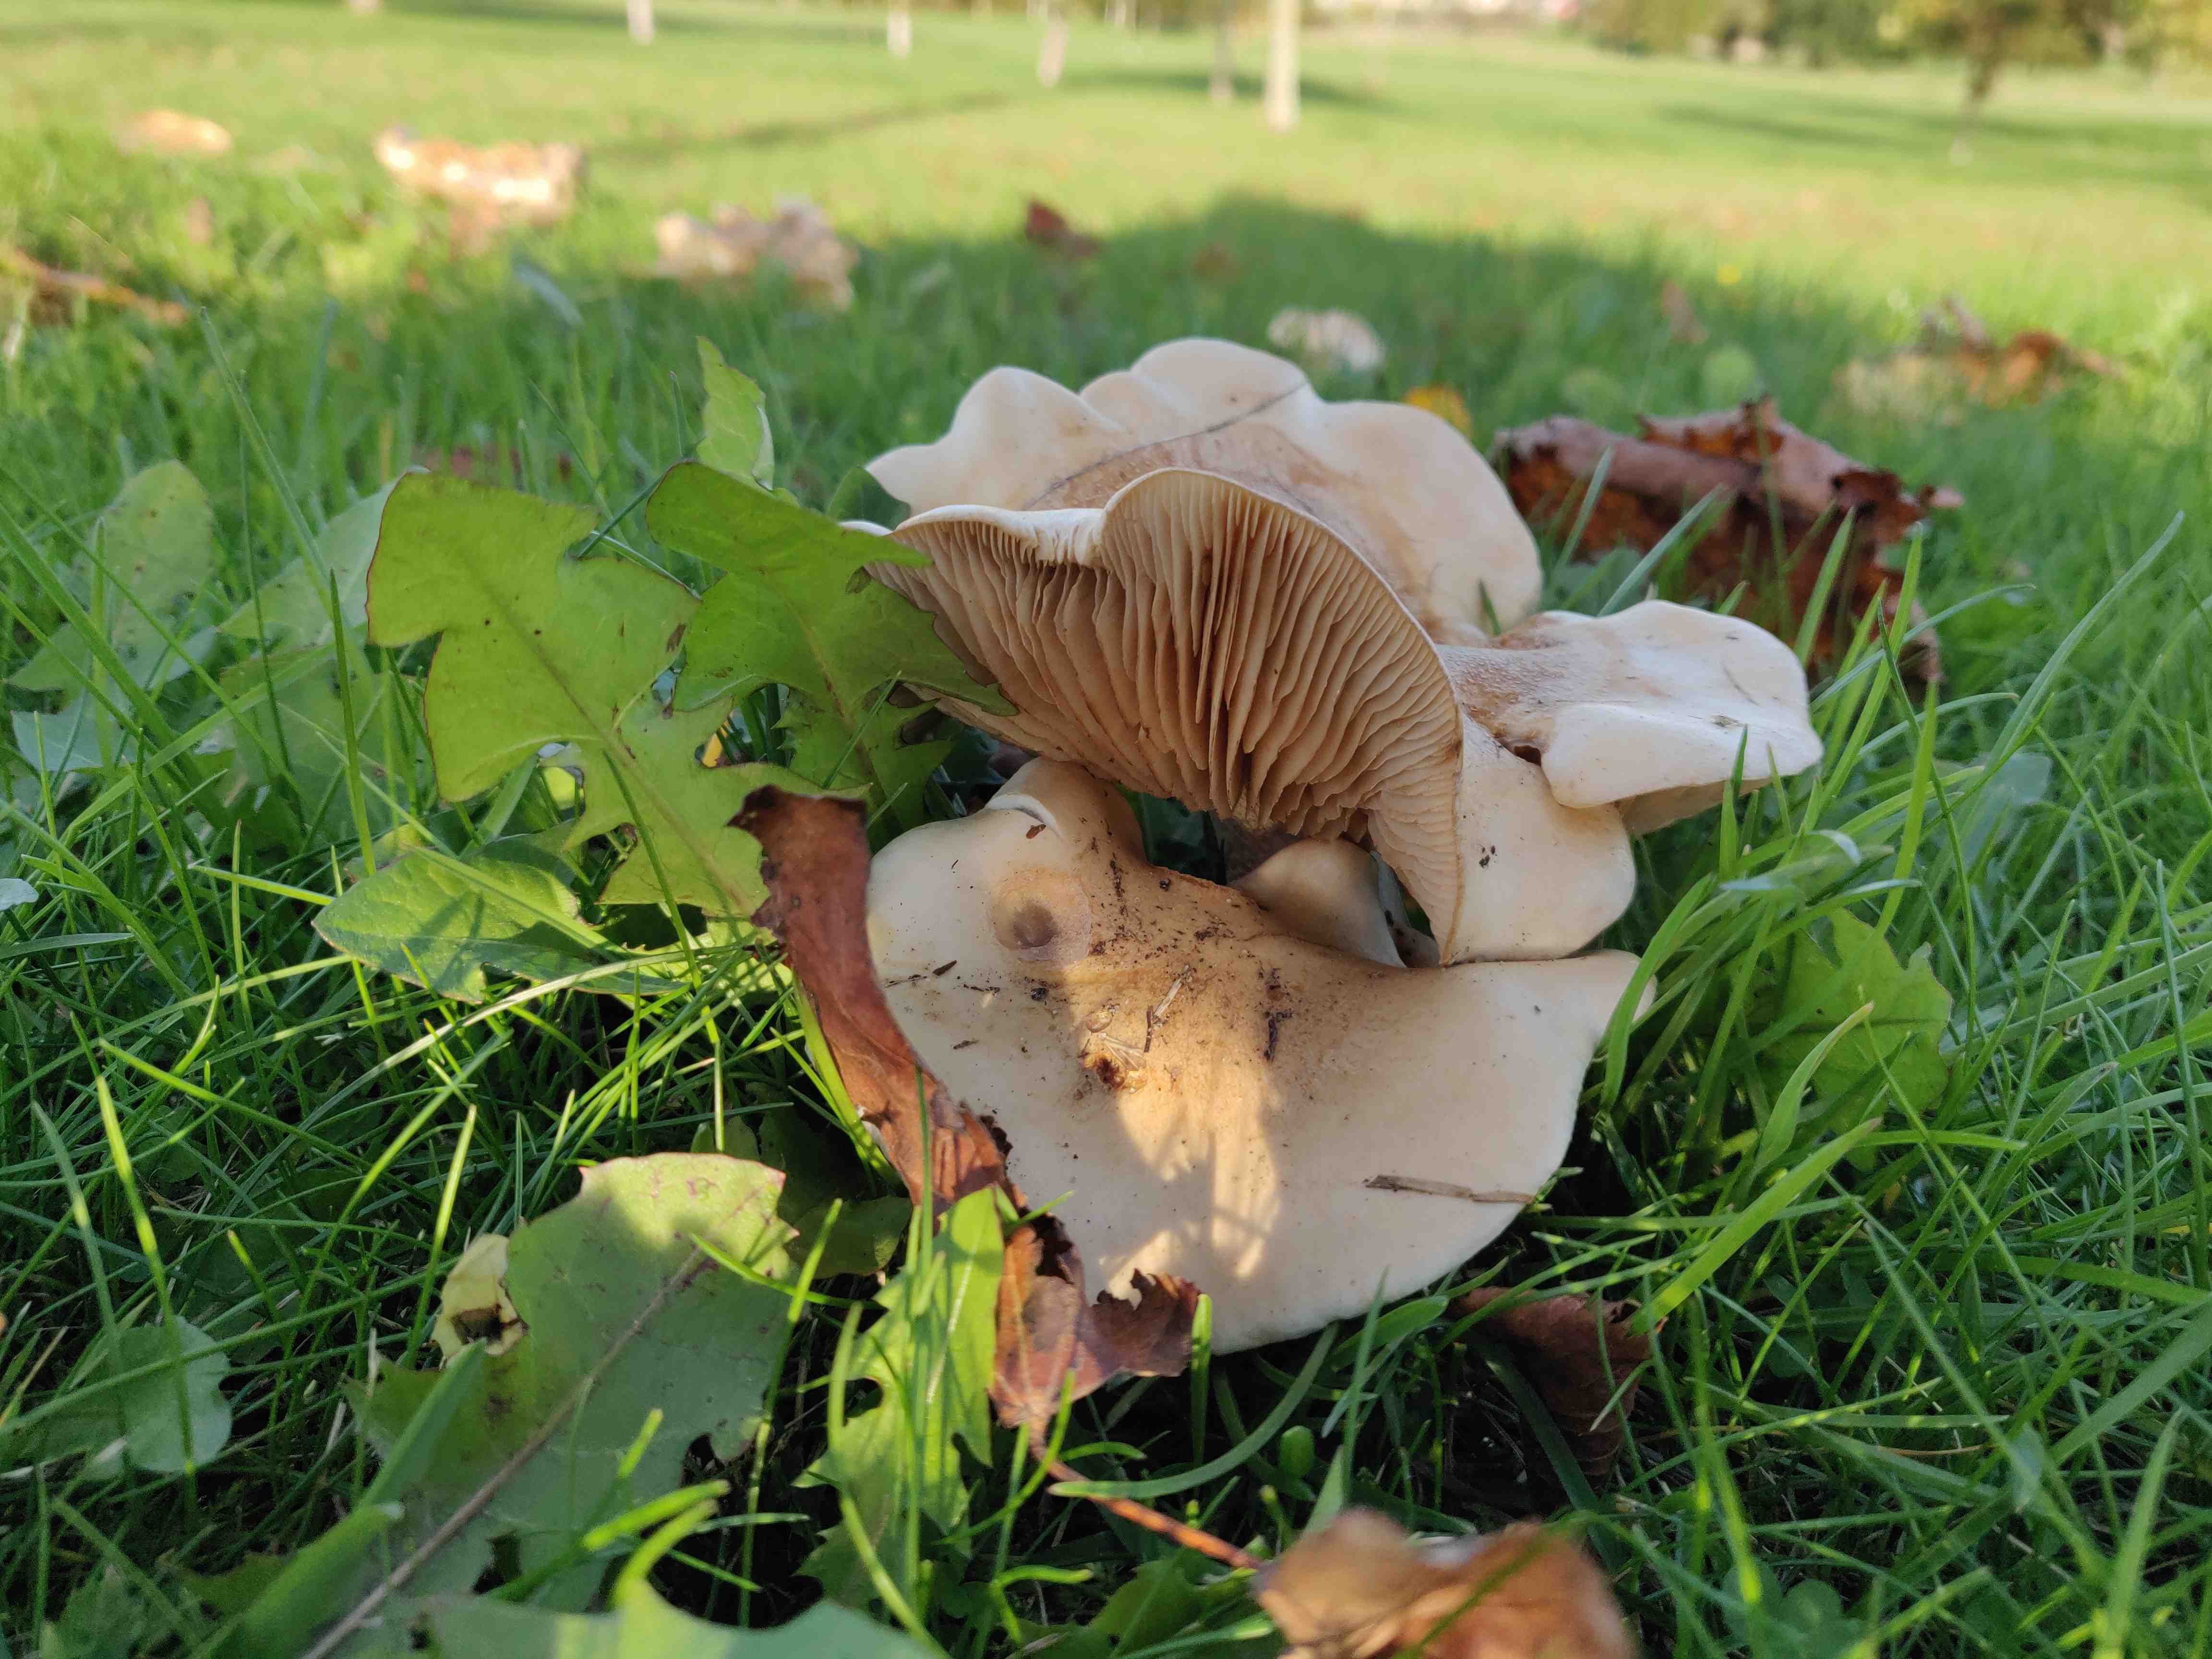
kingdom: Fungi
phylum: Basidiomycota
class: Agaricomycetes
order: Agaricales
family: Hymenogastraceae
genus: Hebeloma
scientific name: Hebeloma crustuliniforme
